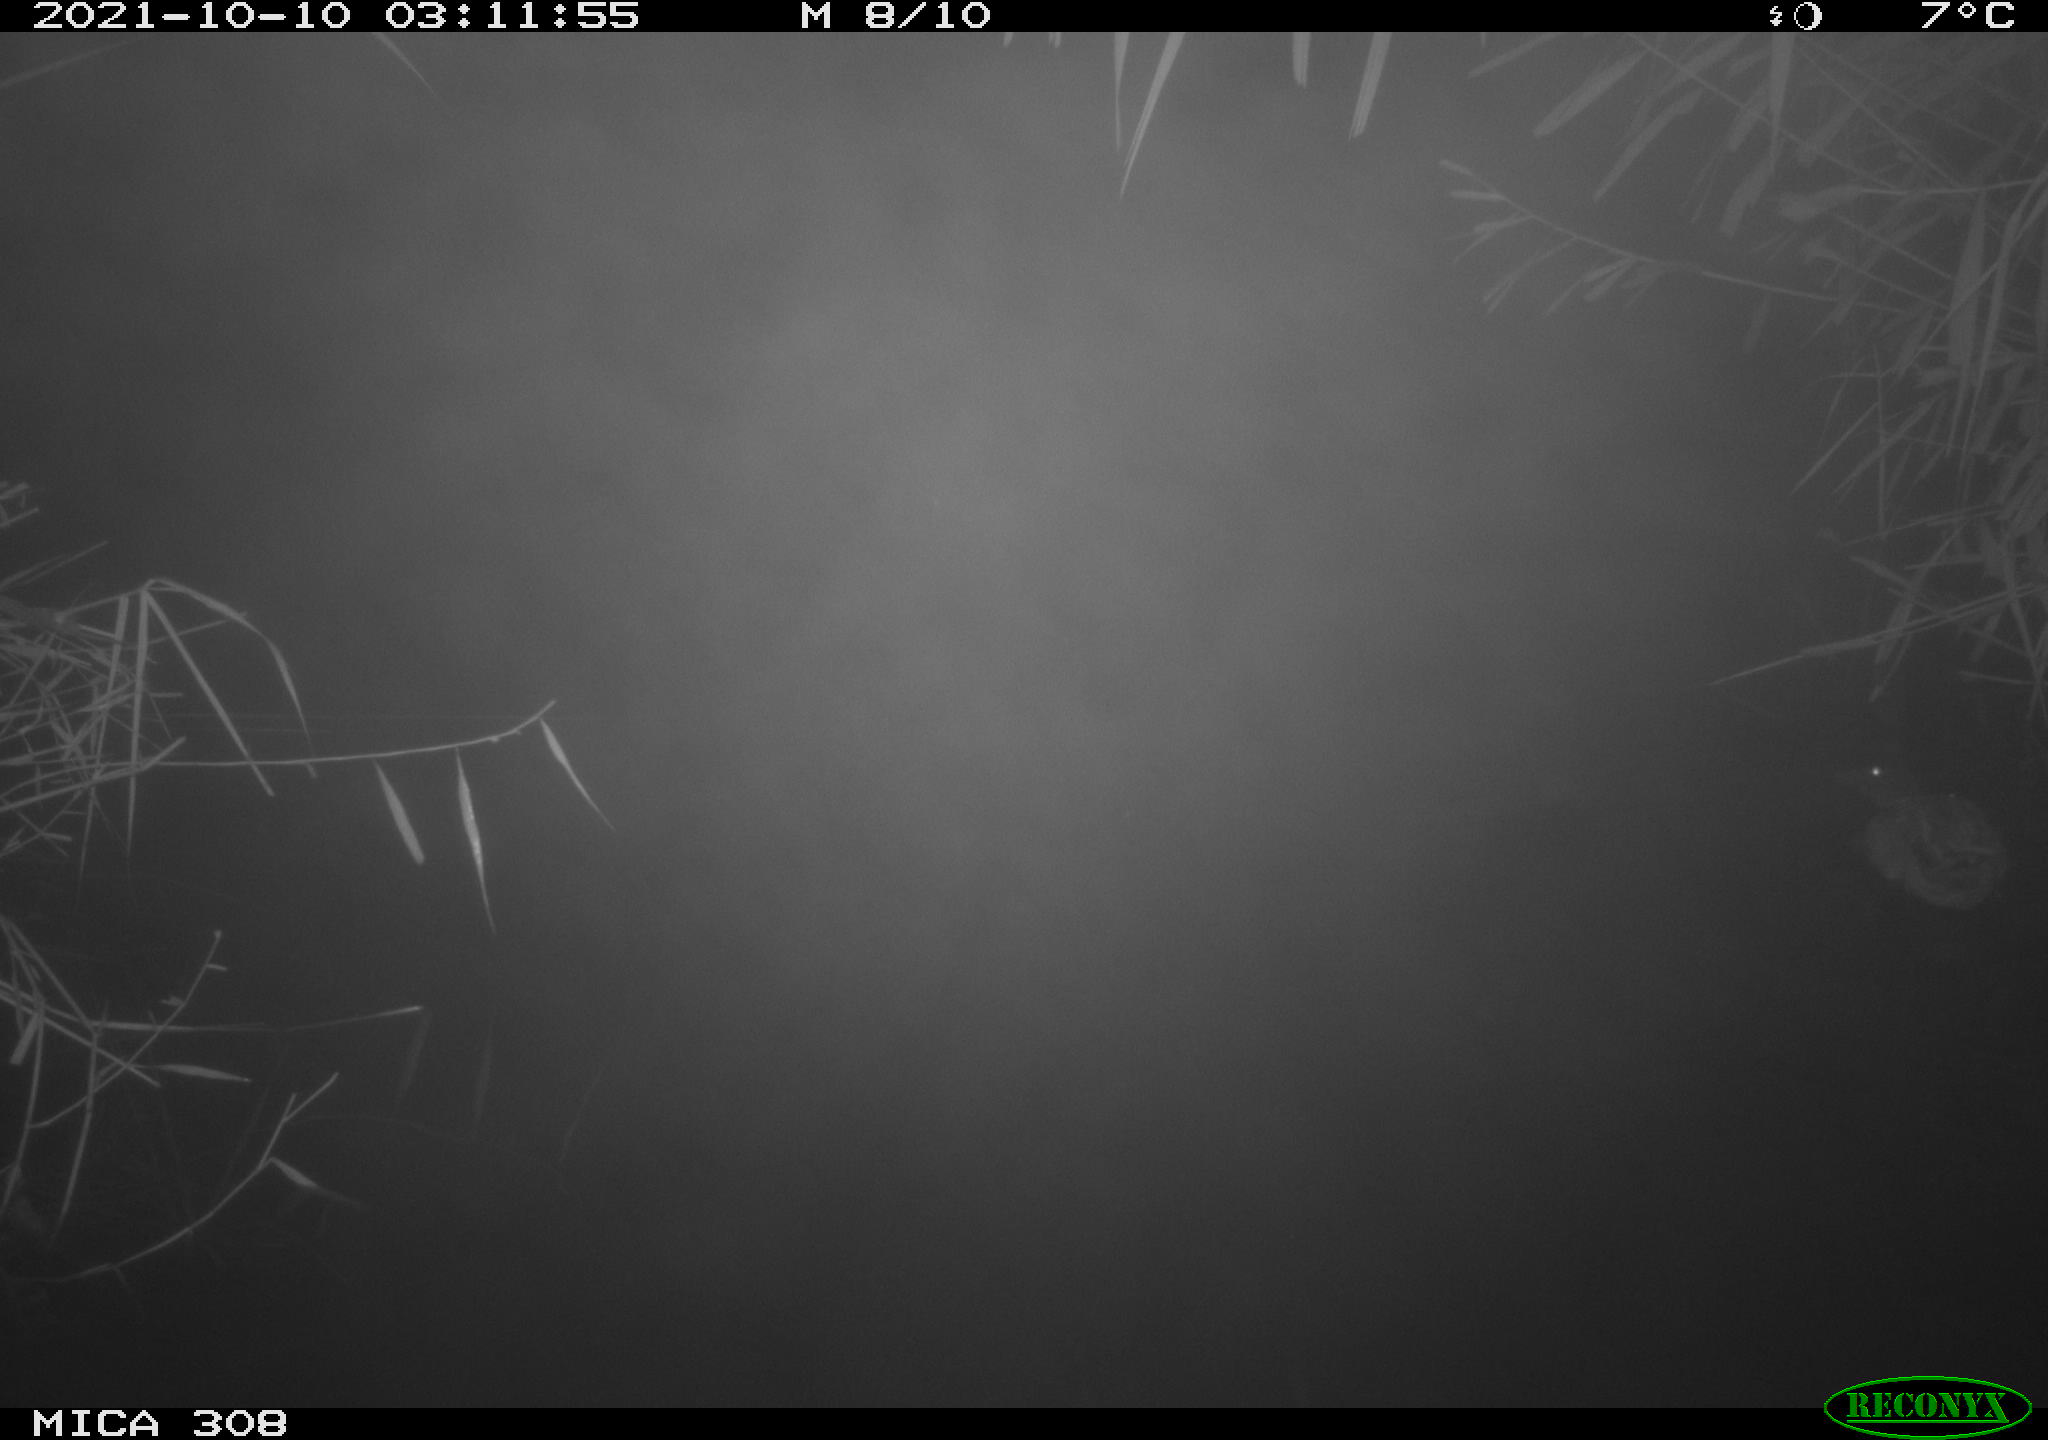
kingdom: Animalia
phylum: Chordata
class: Aves
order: Anseriformes
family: Anatidae
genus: Spatula
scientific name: Spatula clypeata
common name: Northern shoveler
